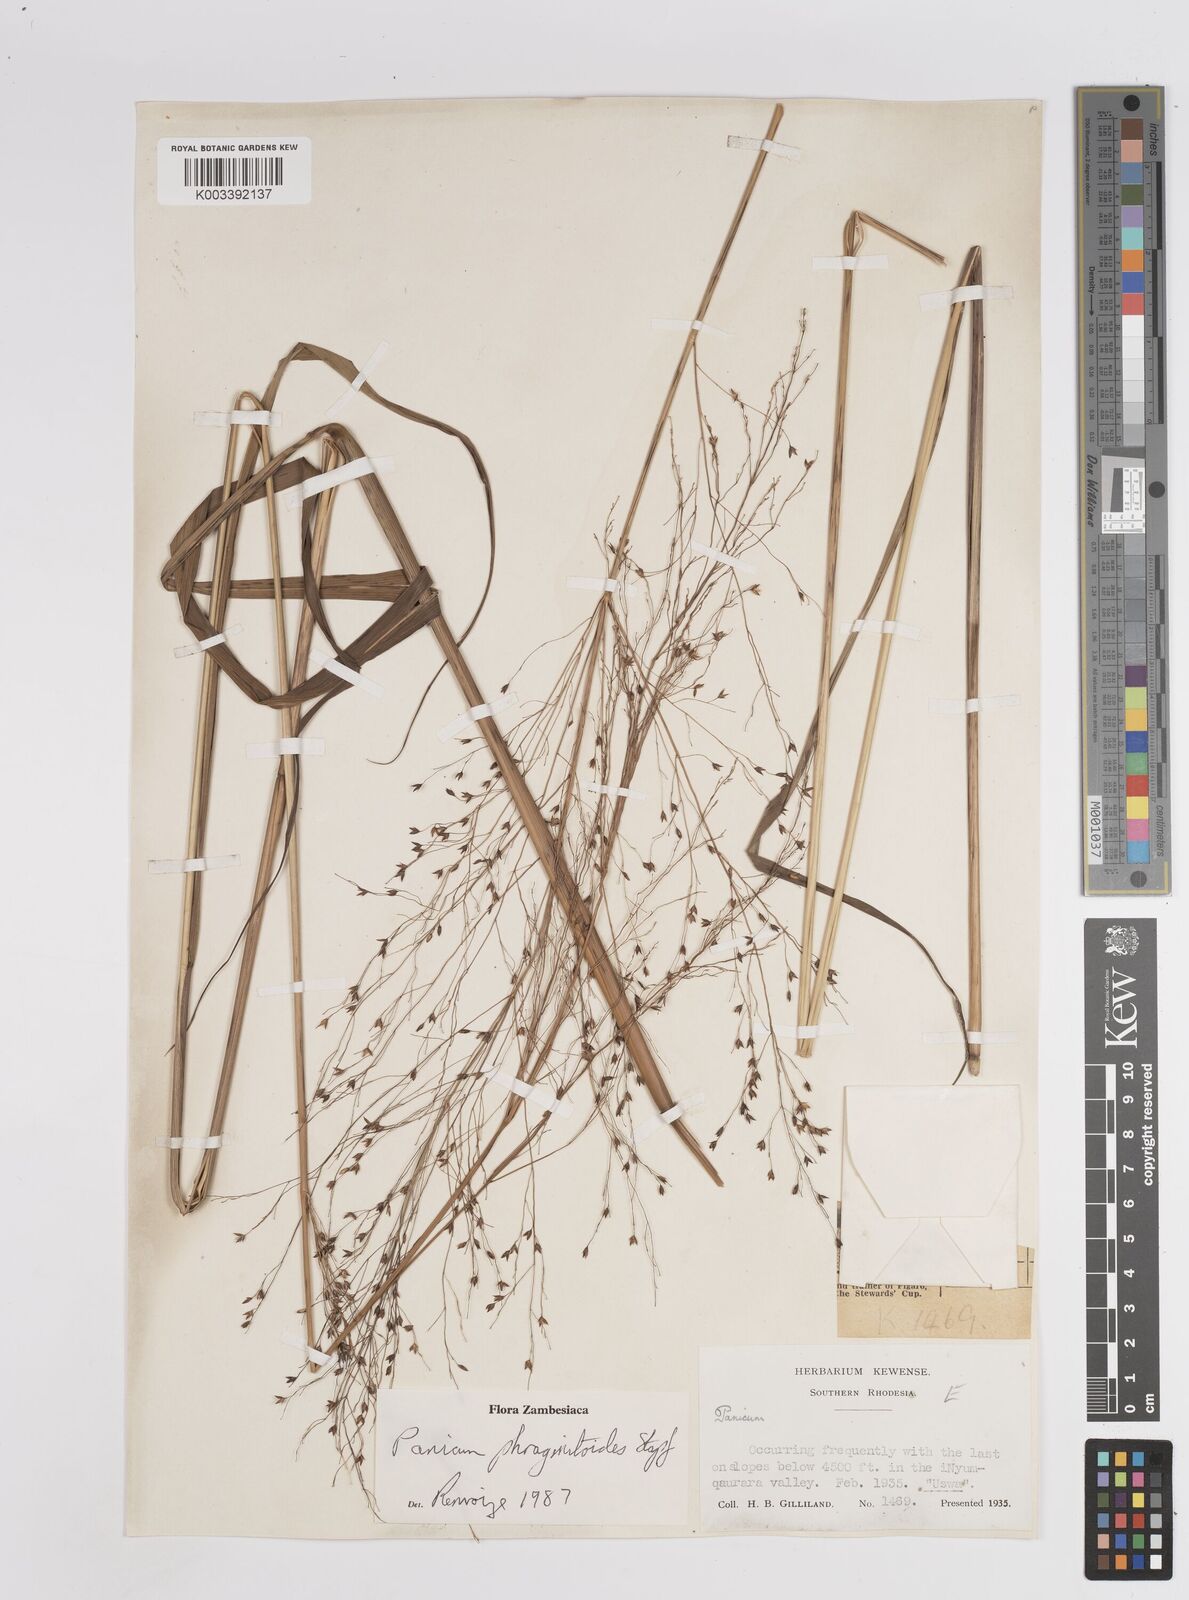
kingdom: Plantae
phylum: Tracheophyta
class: Liliopsida
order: Poales
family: Poaceae
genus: Panicum
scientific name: Panicum phragmitoides
